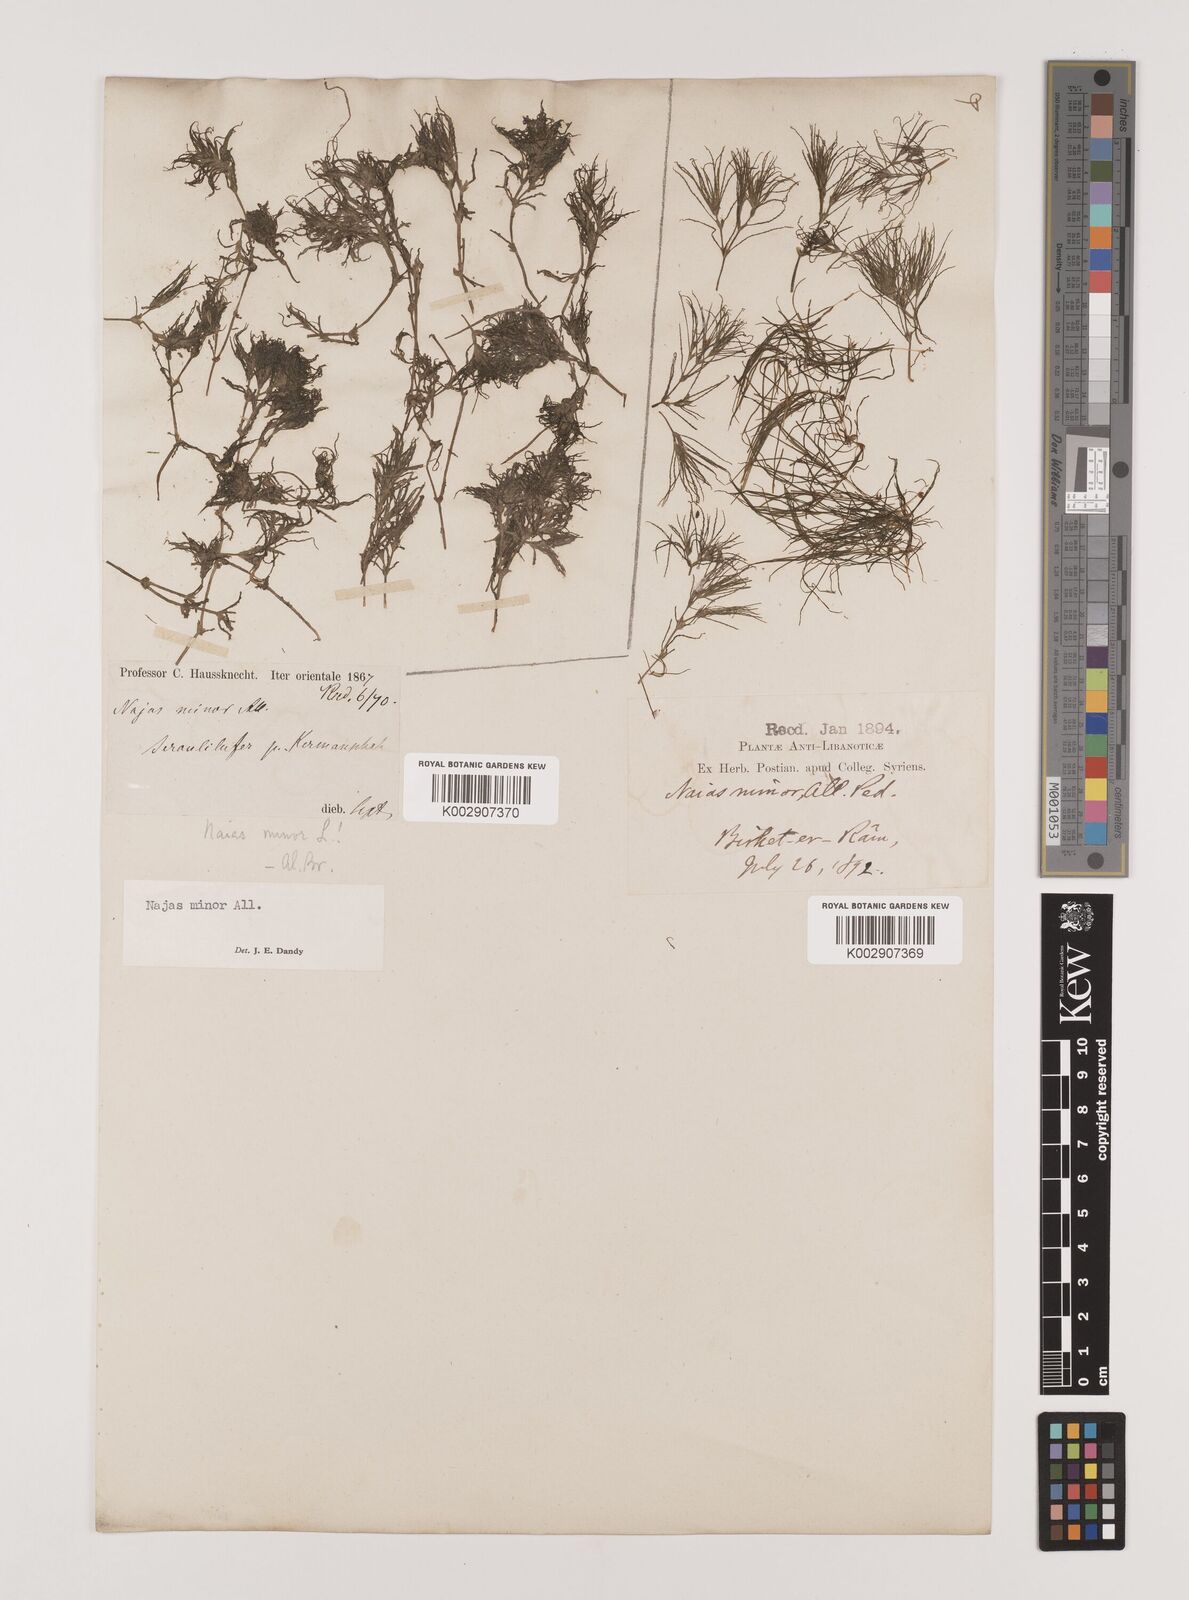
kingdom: Plantae
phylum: Tracheophyta
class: Liliopsida
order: Alismatales
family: Hydrocharitaceae
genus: Najas
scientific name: Najas minor
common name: Brittle naiad
